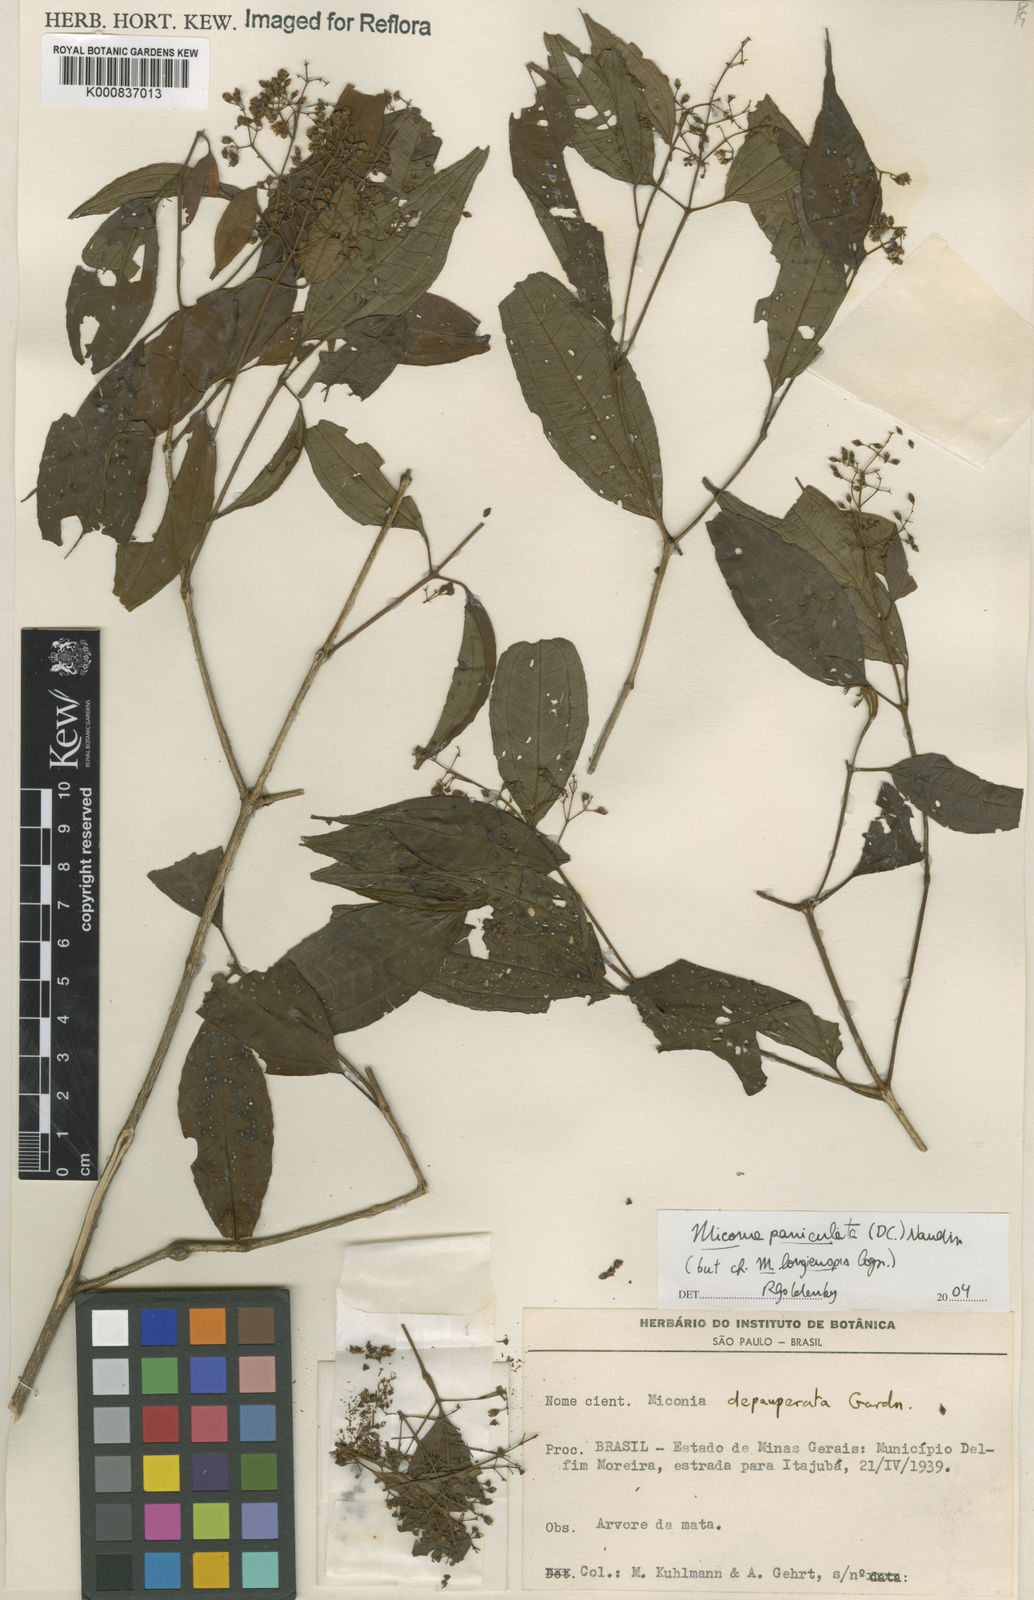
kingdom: Plantae
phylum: Tracheophyta
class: Magnoliopsida
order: Myrtales
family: Melastomataceae
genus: Miconia
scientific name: Miconia
